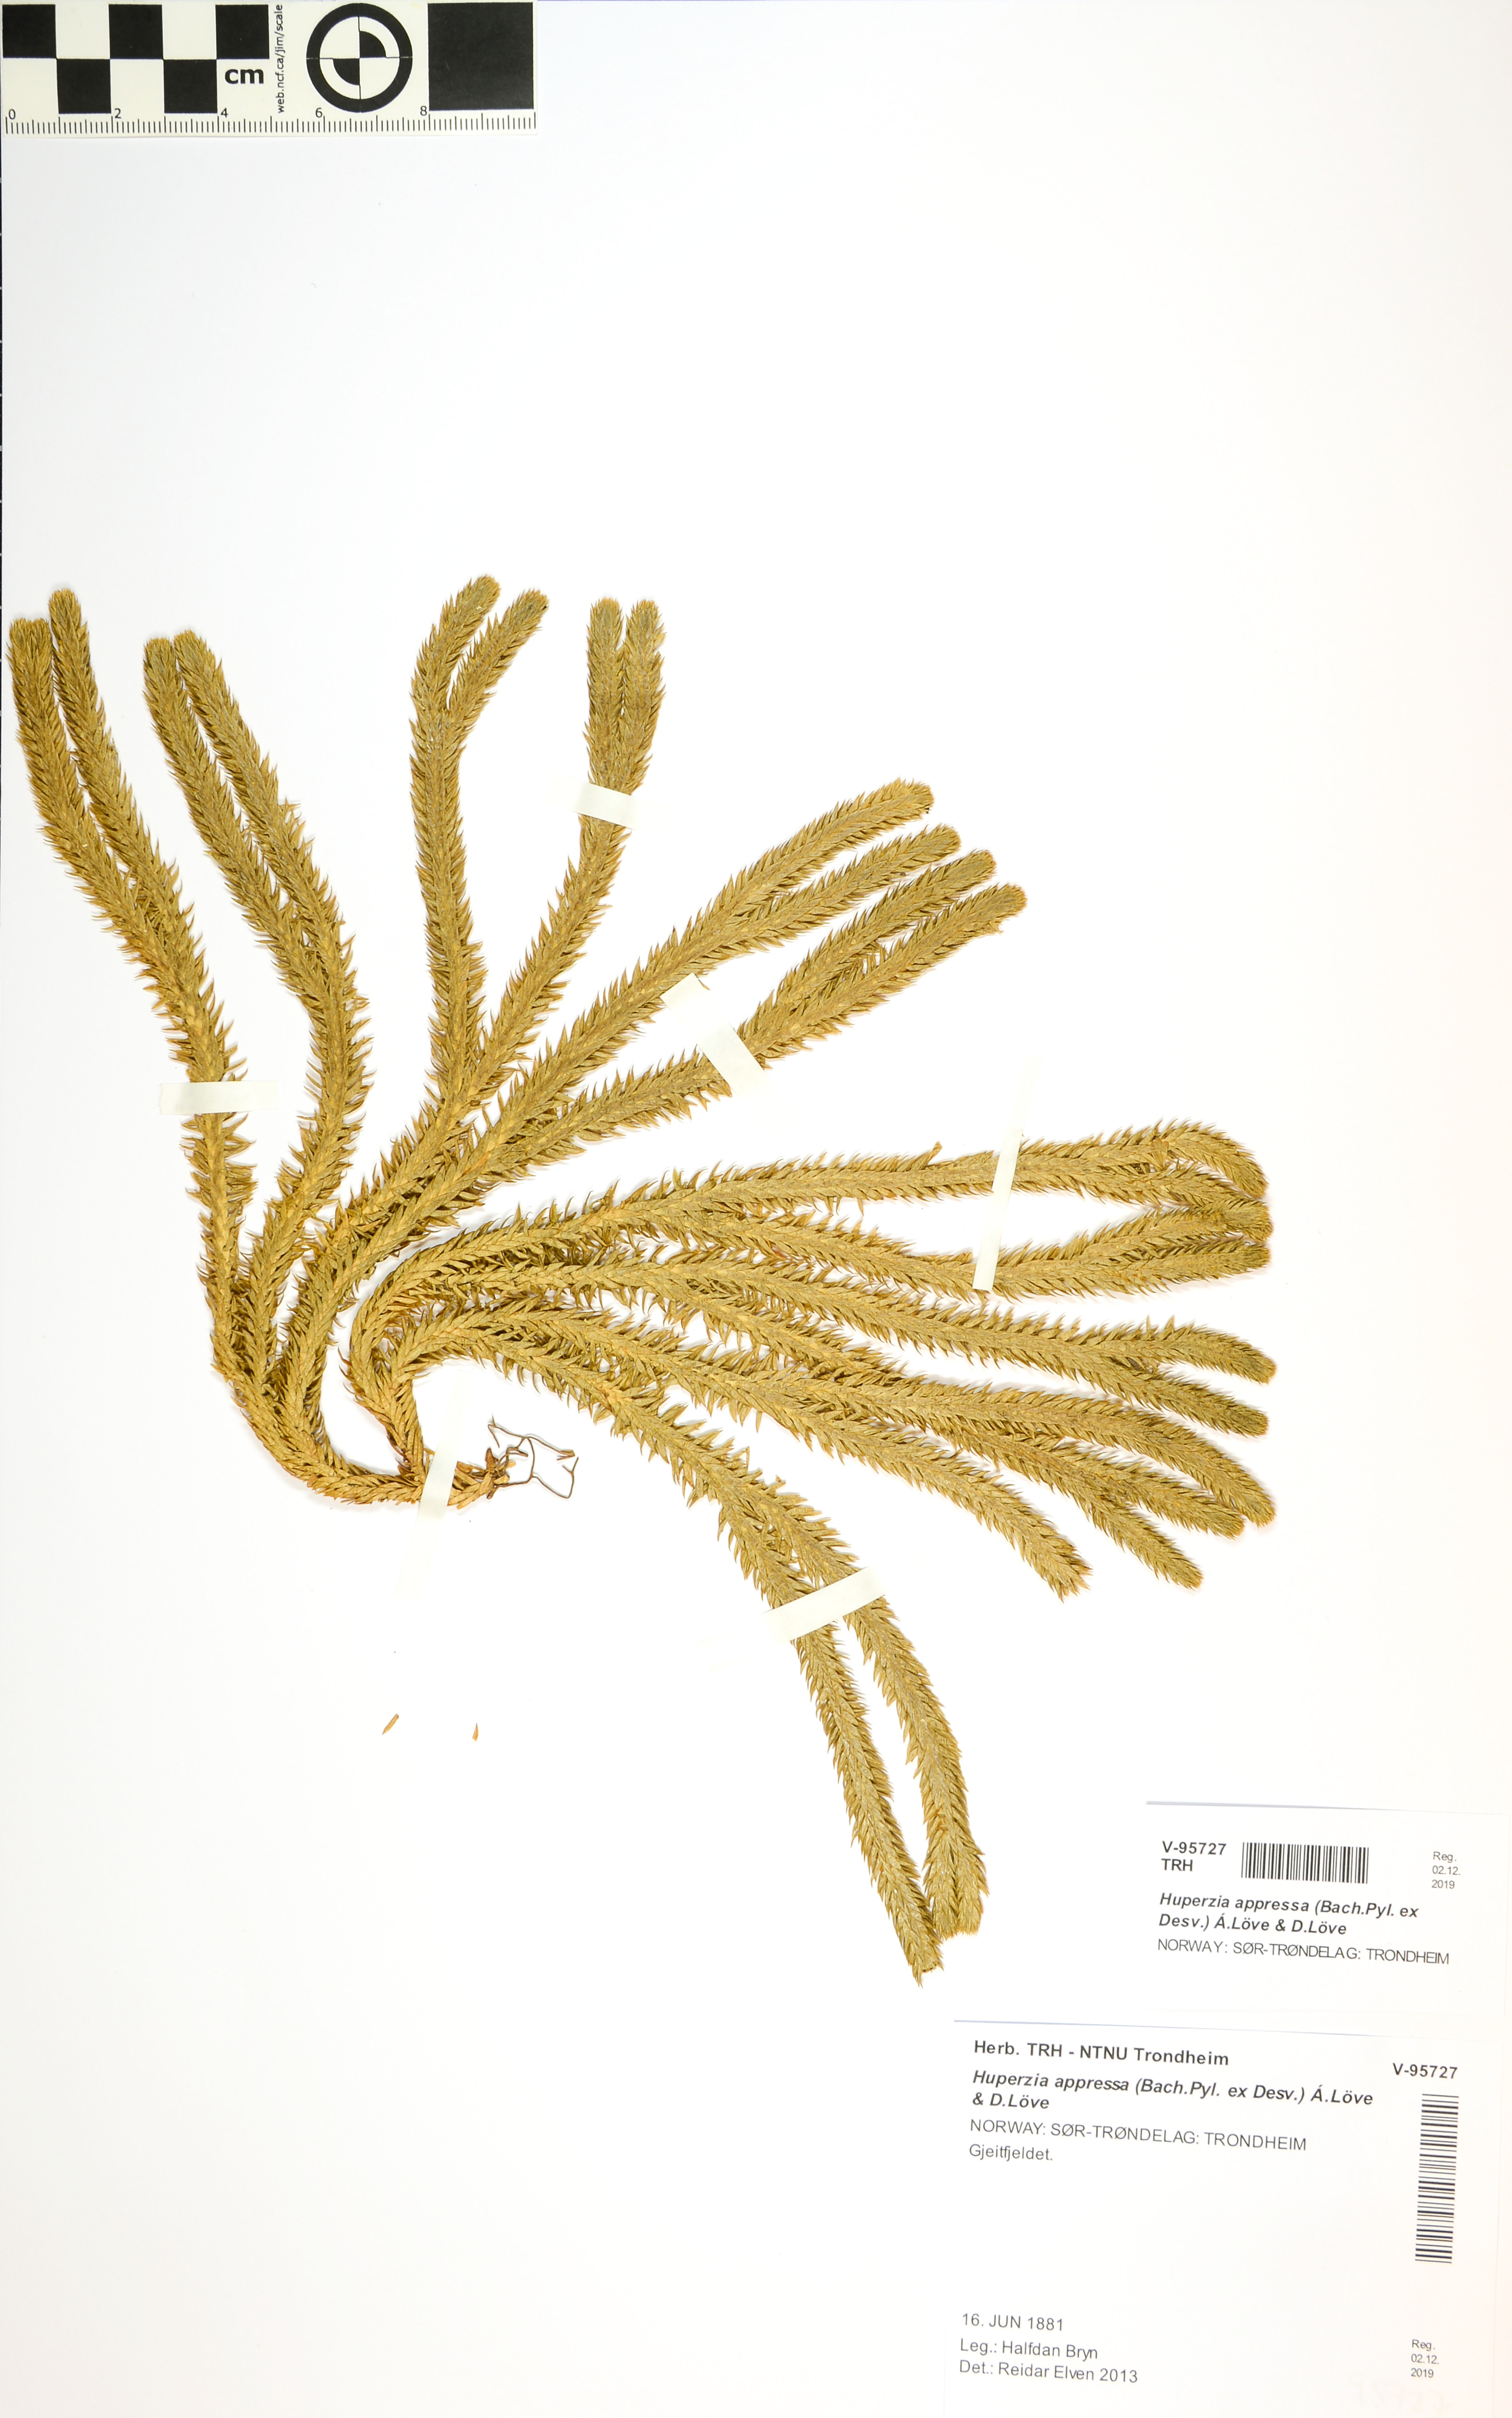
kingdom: Plantae
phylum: Tracheophyta
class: Lycopodiopsida
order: Lycopodiales
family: Lycopodiaceae
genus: Huperzia
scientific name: Huperzia selago
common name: Northern firmoss
